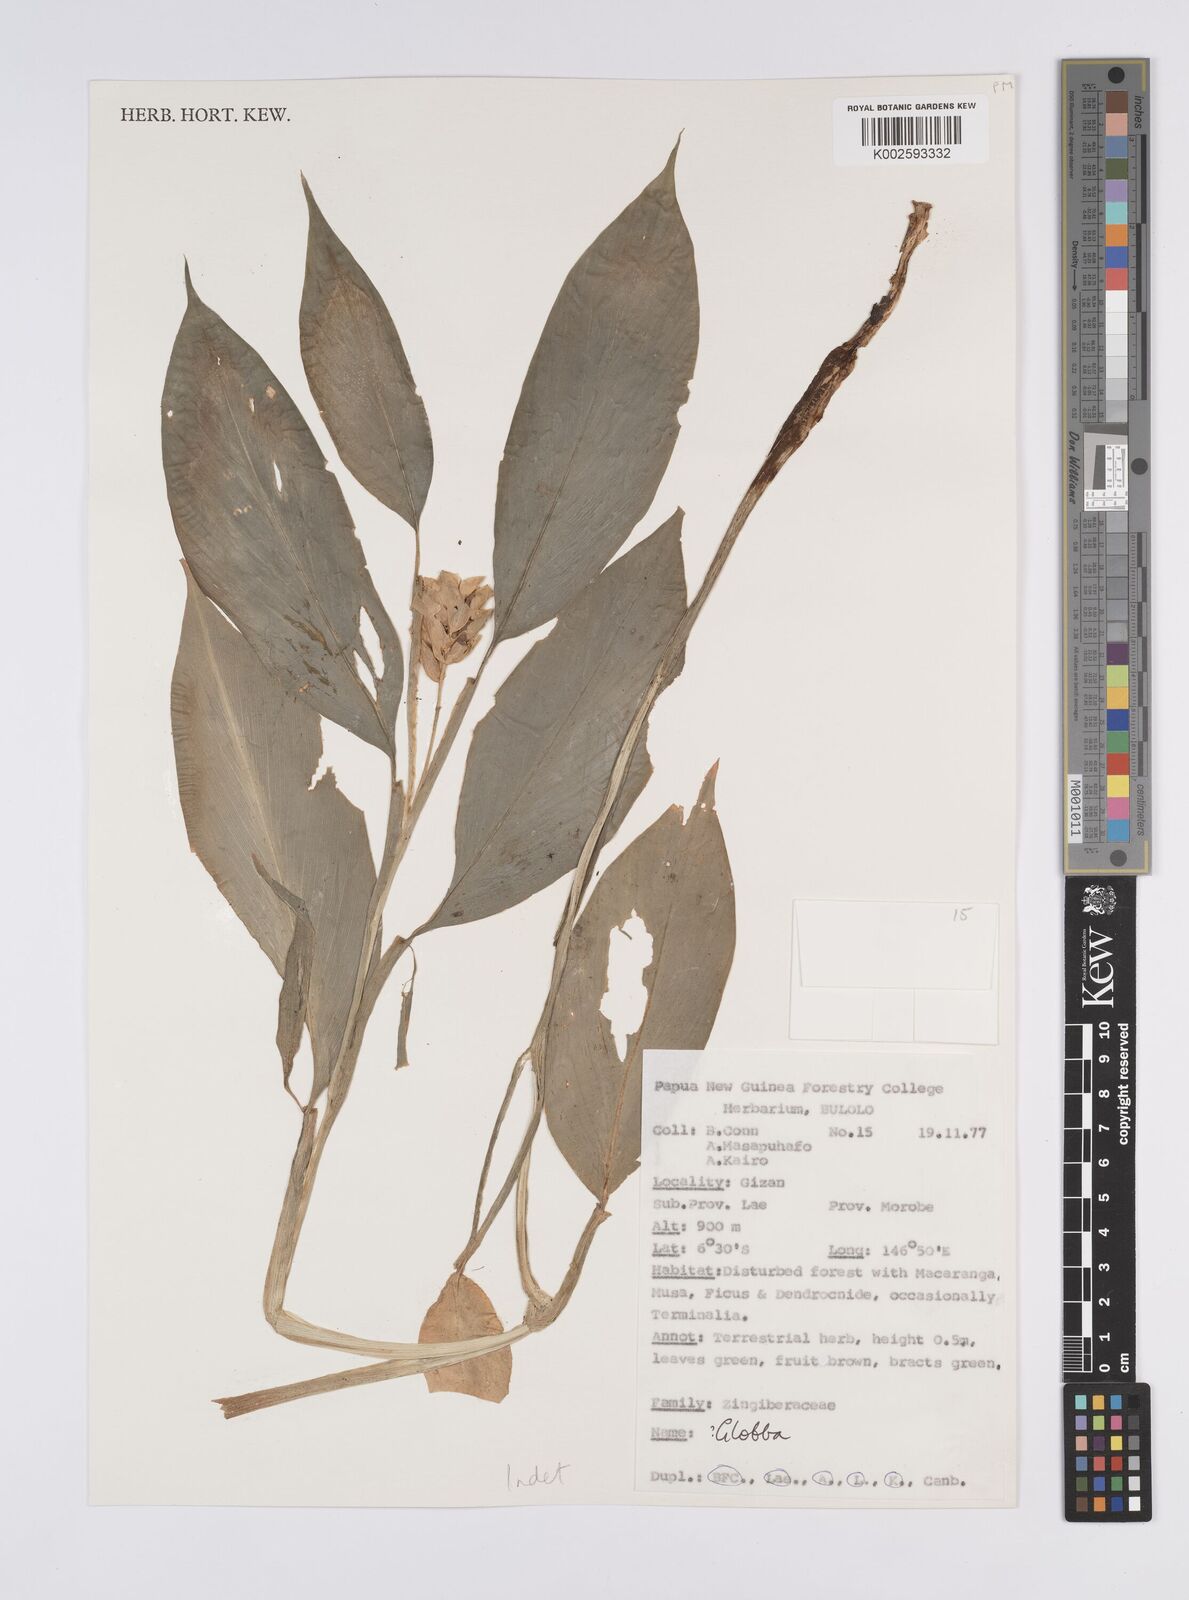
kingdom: Plantae
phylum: Tracheophyta
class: Liliopsida
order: Zingiberales
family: Zingiberaceae
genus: Globba
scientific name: Globba marantina
